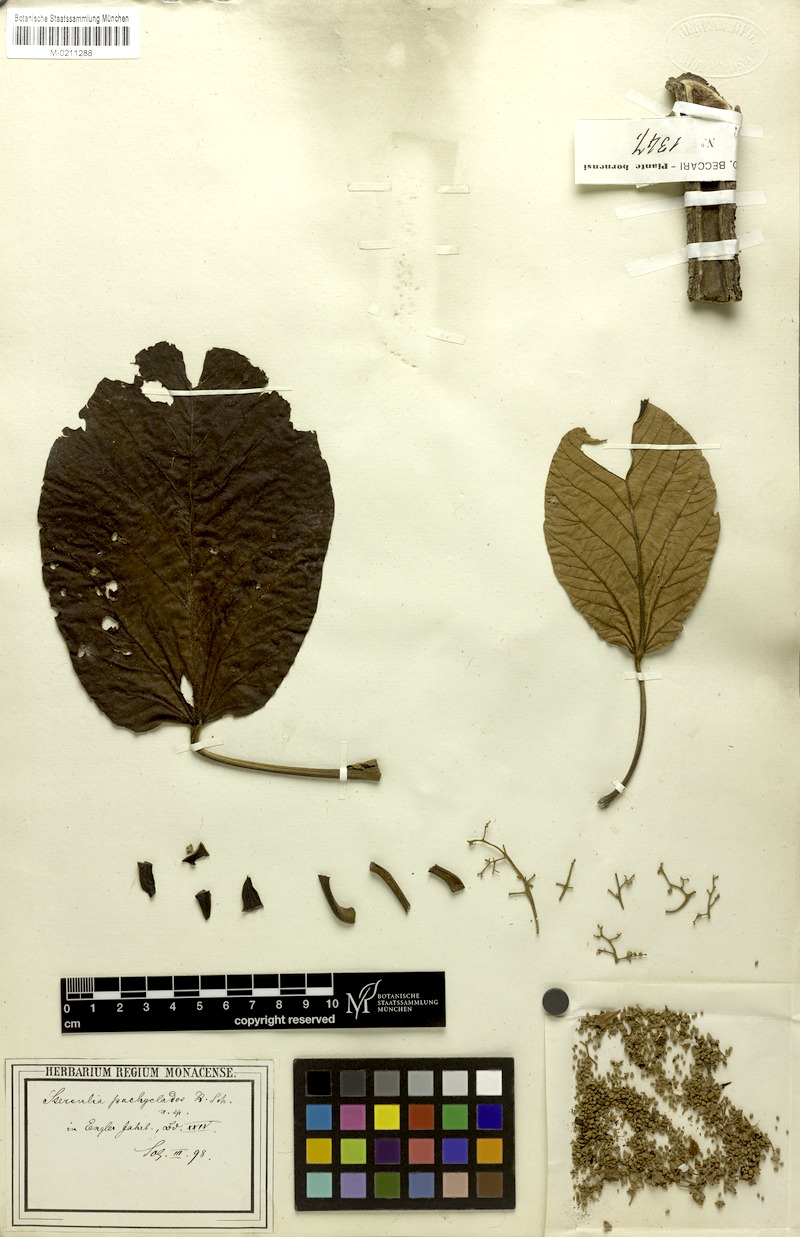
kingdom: Plantae
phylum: Tracheophyta
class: Magnoliopsida
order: Malvales
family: Malvaceae
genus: Sterculia
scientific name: Sterculia macrophylla
